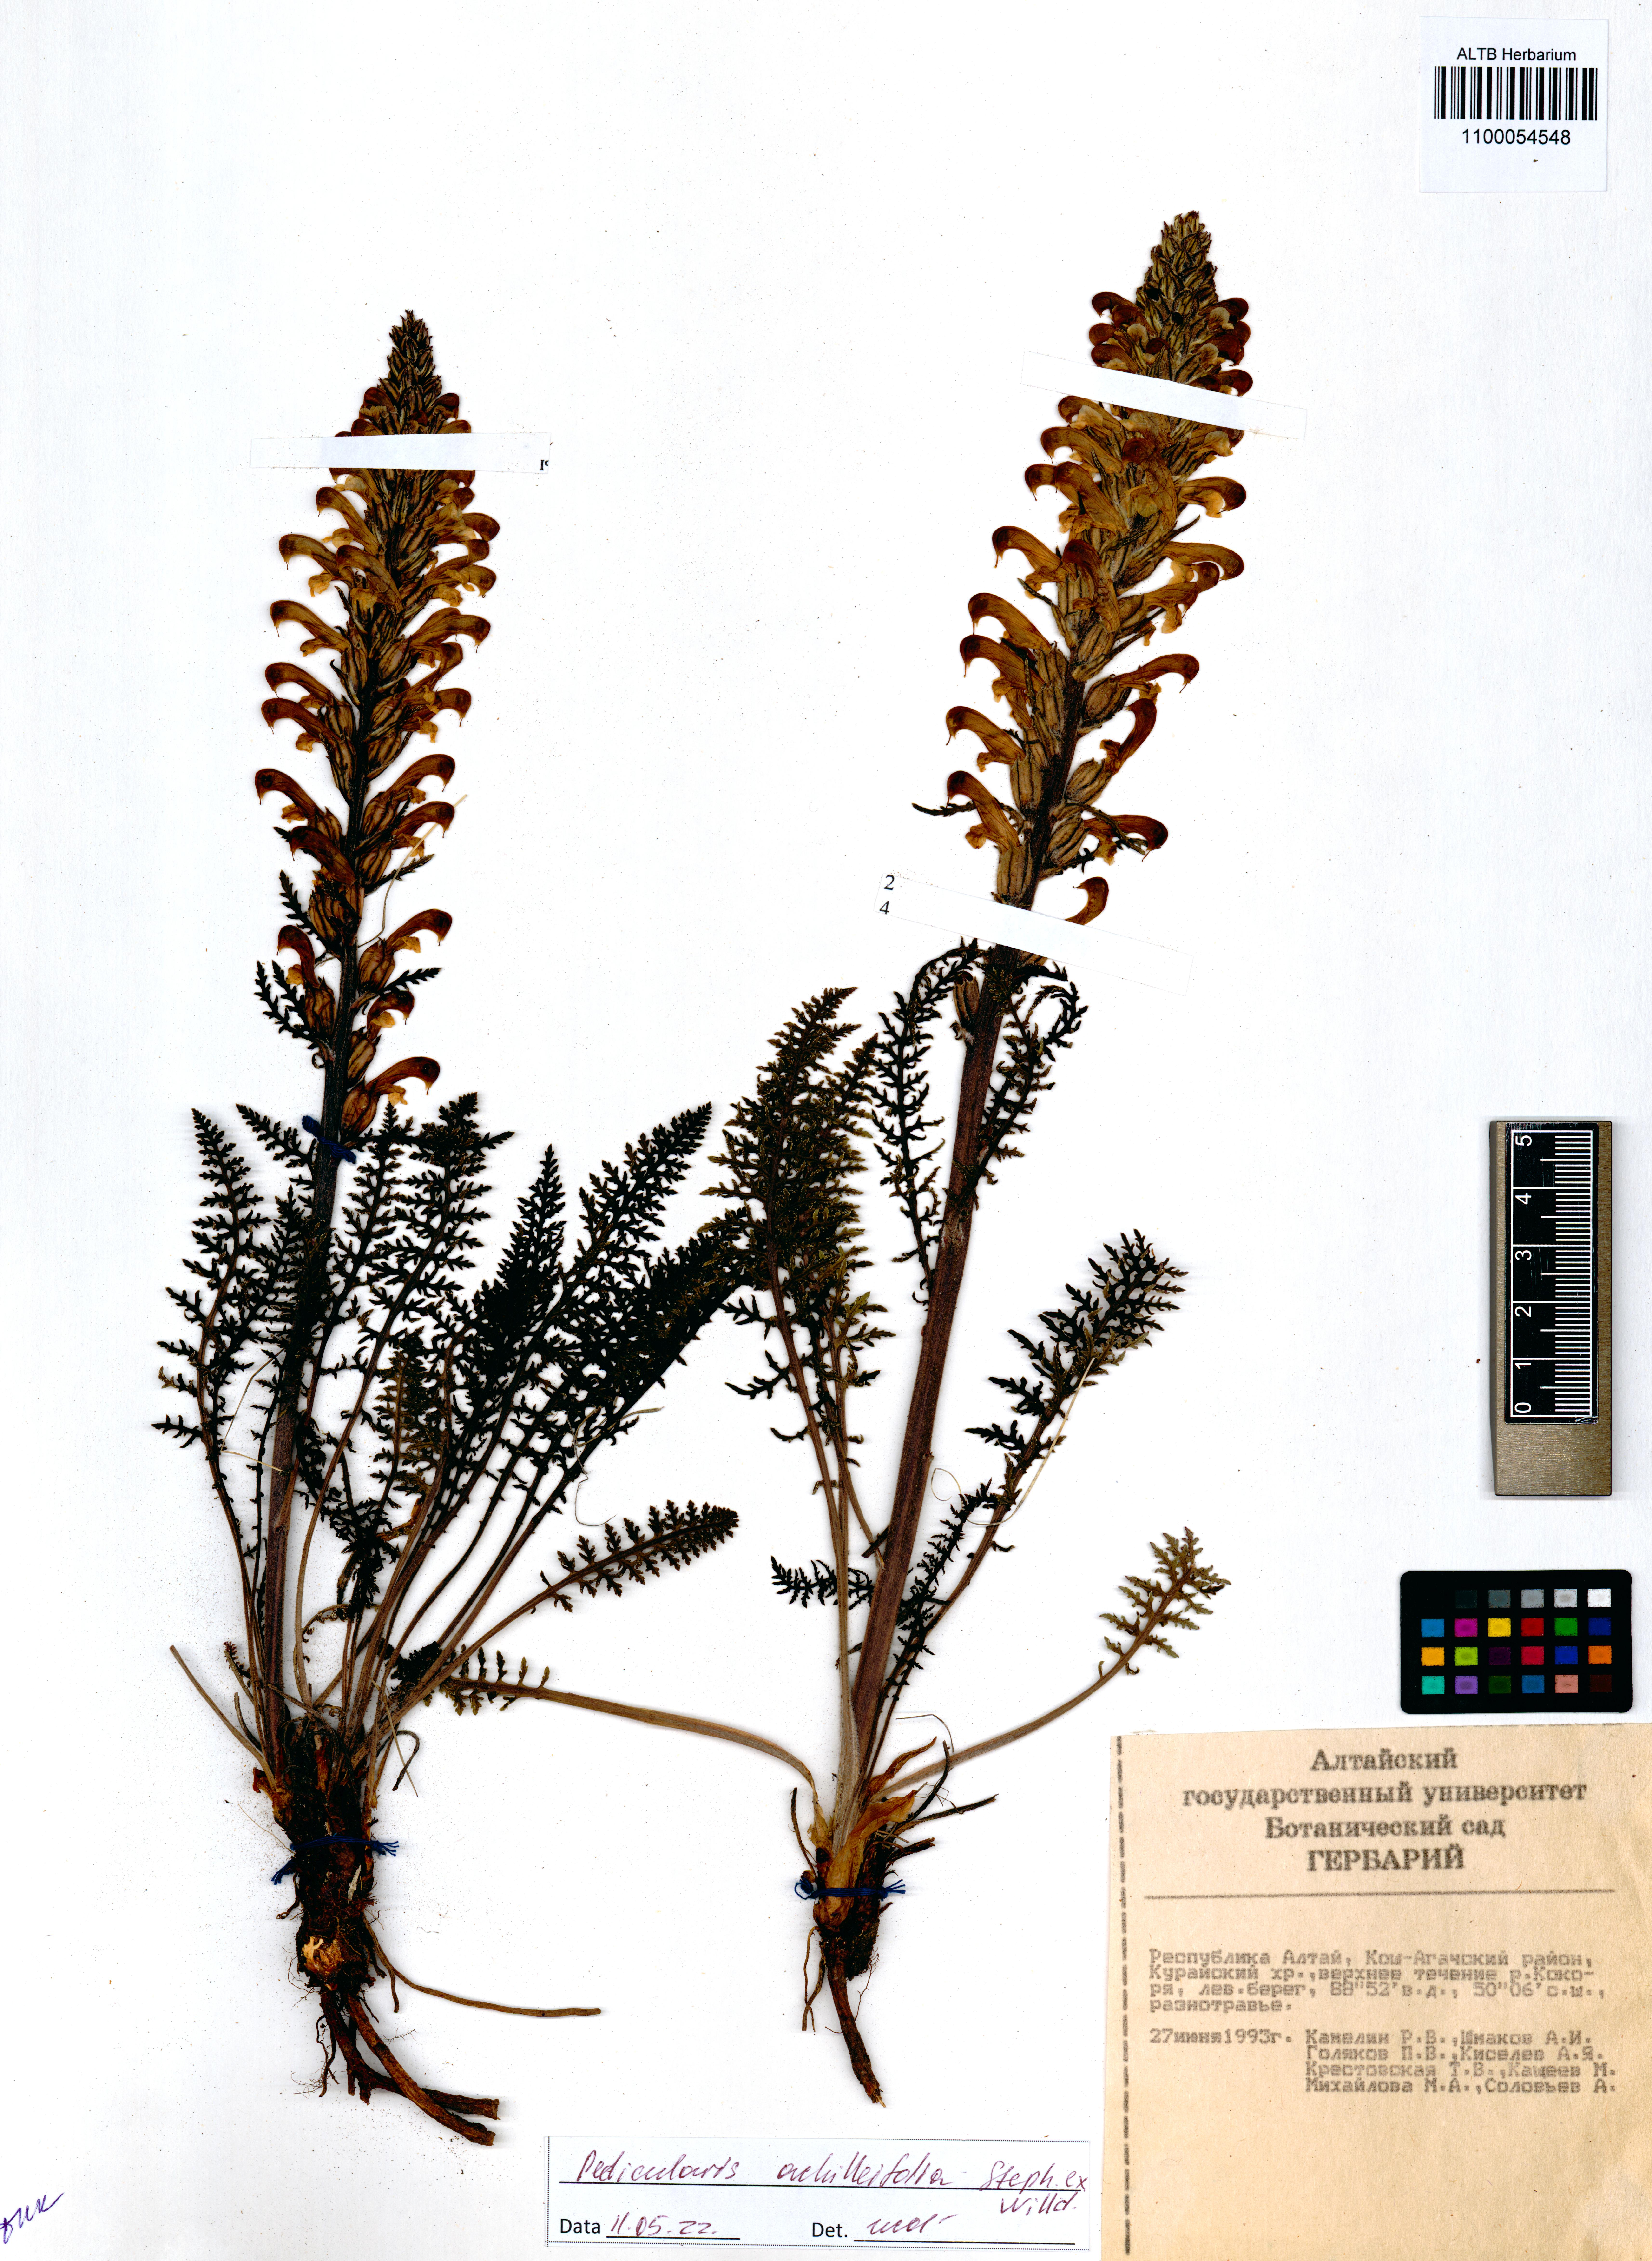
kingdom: Plantae
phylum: Tracheophyta
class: Magnoliopsida
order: Lamiales
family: Orobanchaceae
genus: Pedicularis
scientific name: Pedicularis achilleifolia
